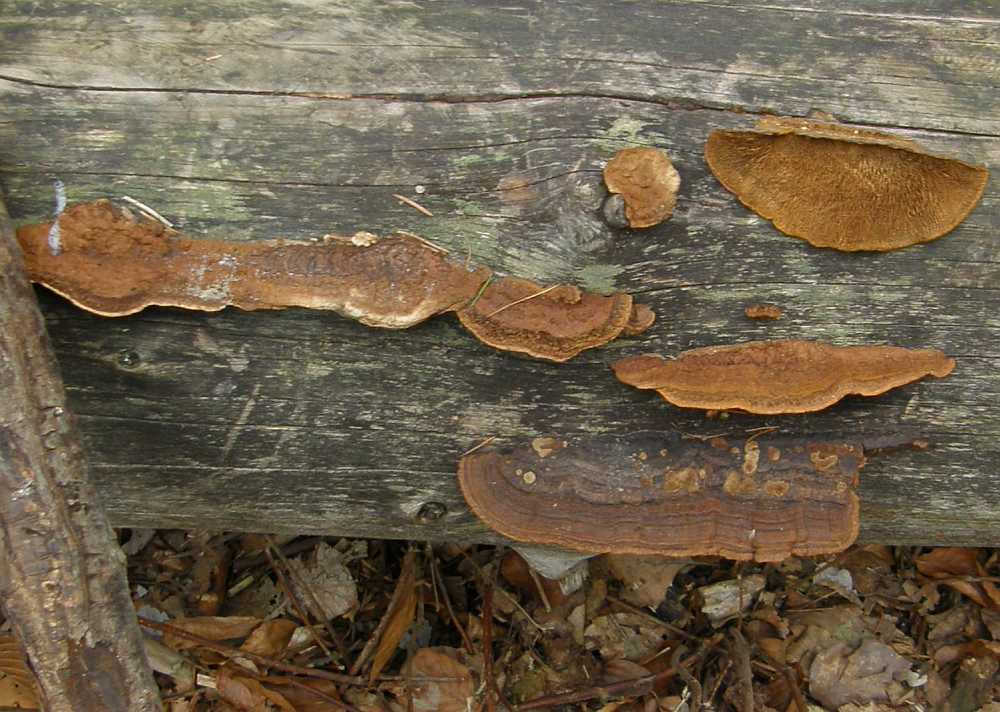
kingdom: Fungi
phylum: Basidiomycota
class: Agaricomycetes
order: Gloeophyllales
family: Gloeophyllaceae
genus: Gloeophyllum
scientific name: Gloeophyllum sepiarium
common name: fyrre-korkhat
